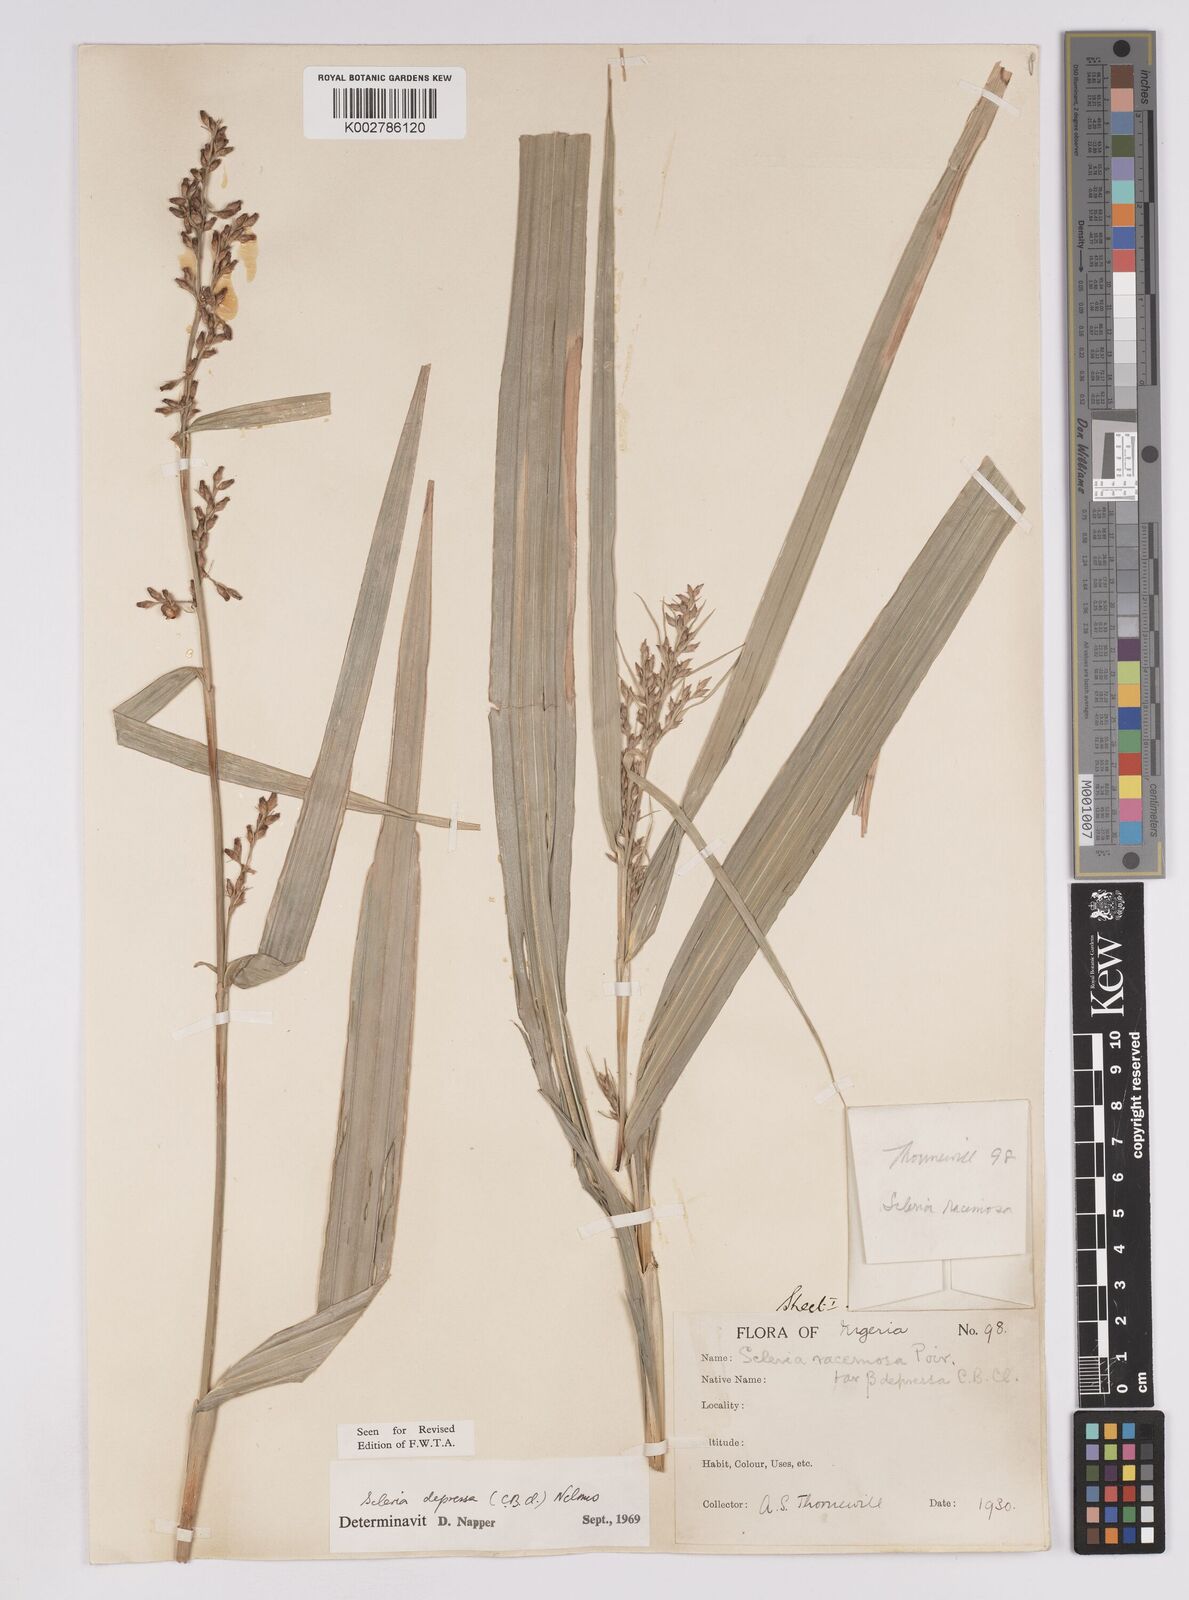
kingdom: Plantae
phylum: Tracheophyta
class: Liliopsida
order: Poales
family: Cyperaceae
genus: Scleria
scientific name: Scleria depressa
